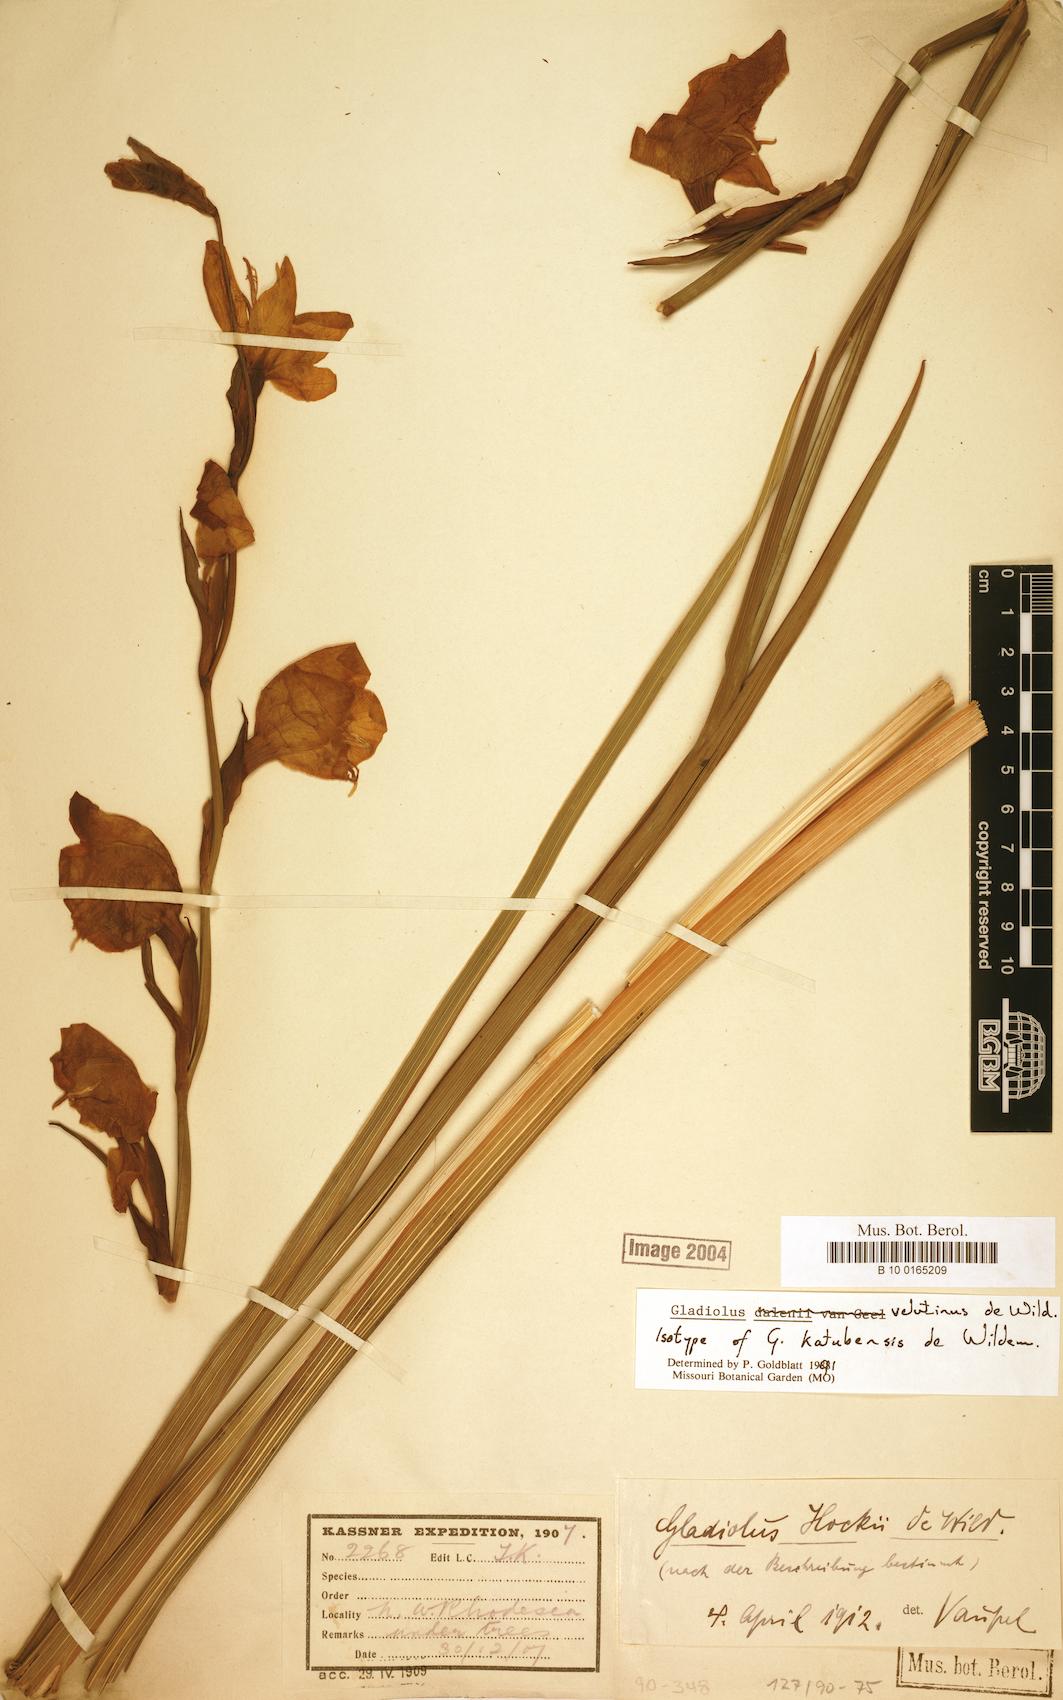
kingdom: Plantae
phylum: Tracheophyta
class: Liliopsida
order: Asparagales
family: Iridaceae
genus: Gladiolus
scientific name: Gladiolus velutinus
